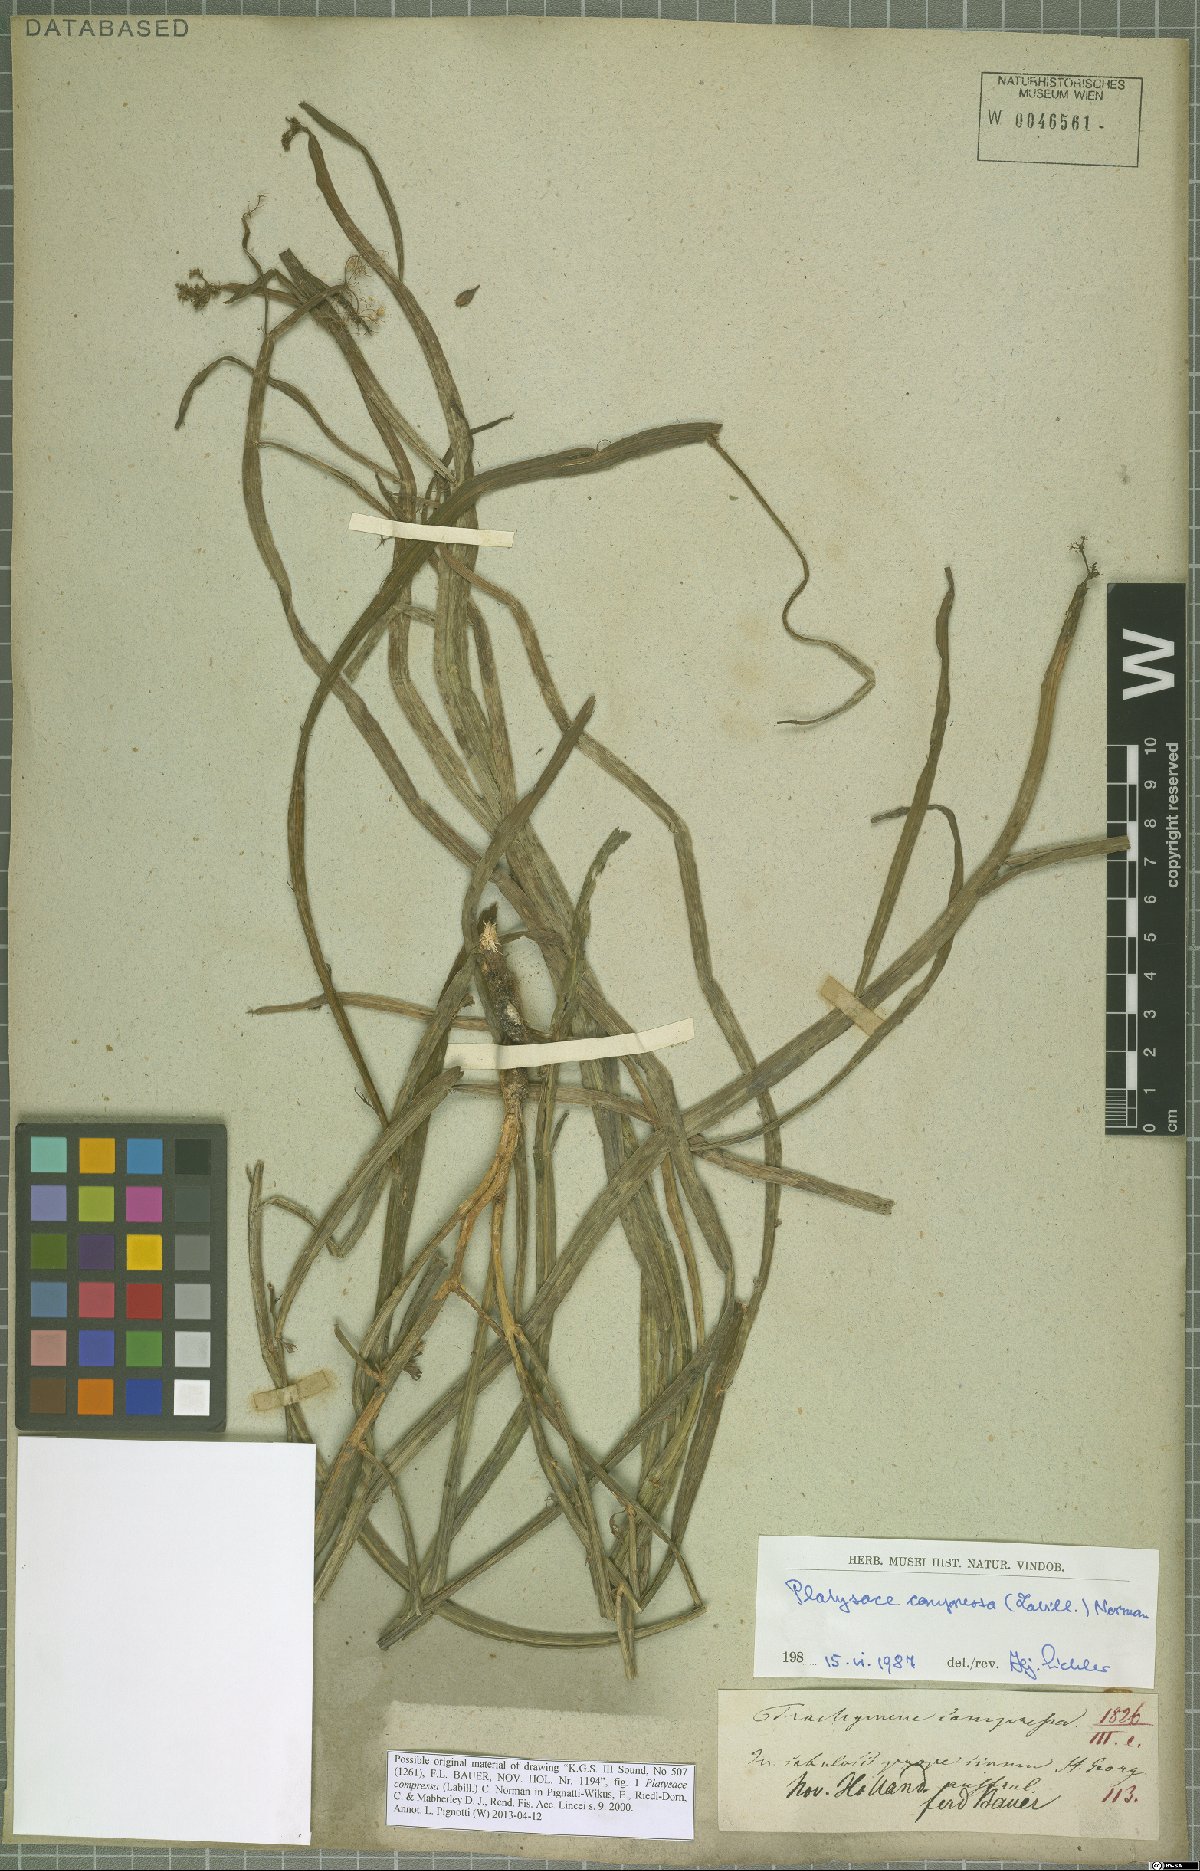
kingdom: Plantae
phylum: Tracheophyta
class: Magnoliopsida
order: Apiales
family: Apiaceae
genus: Platysace
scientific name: Platysace compressa
